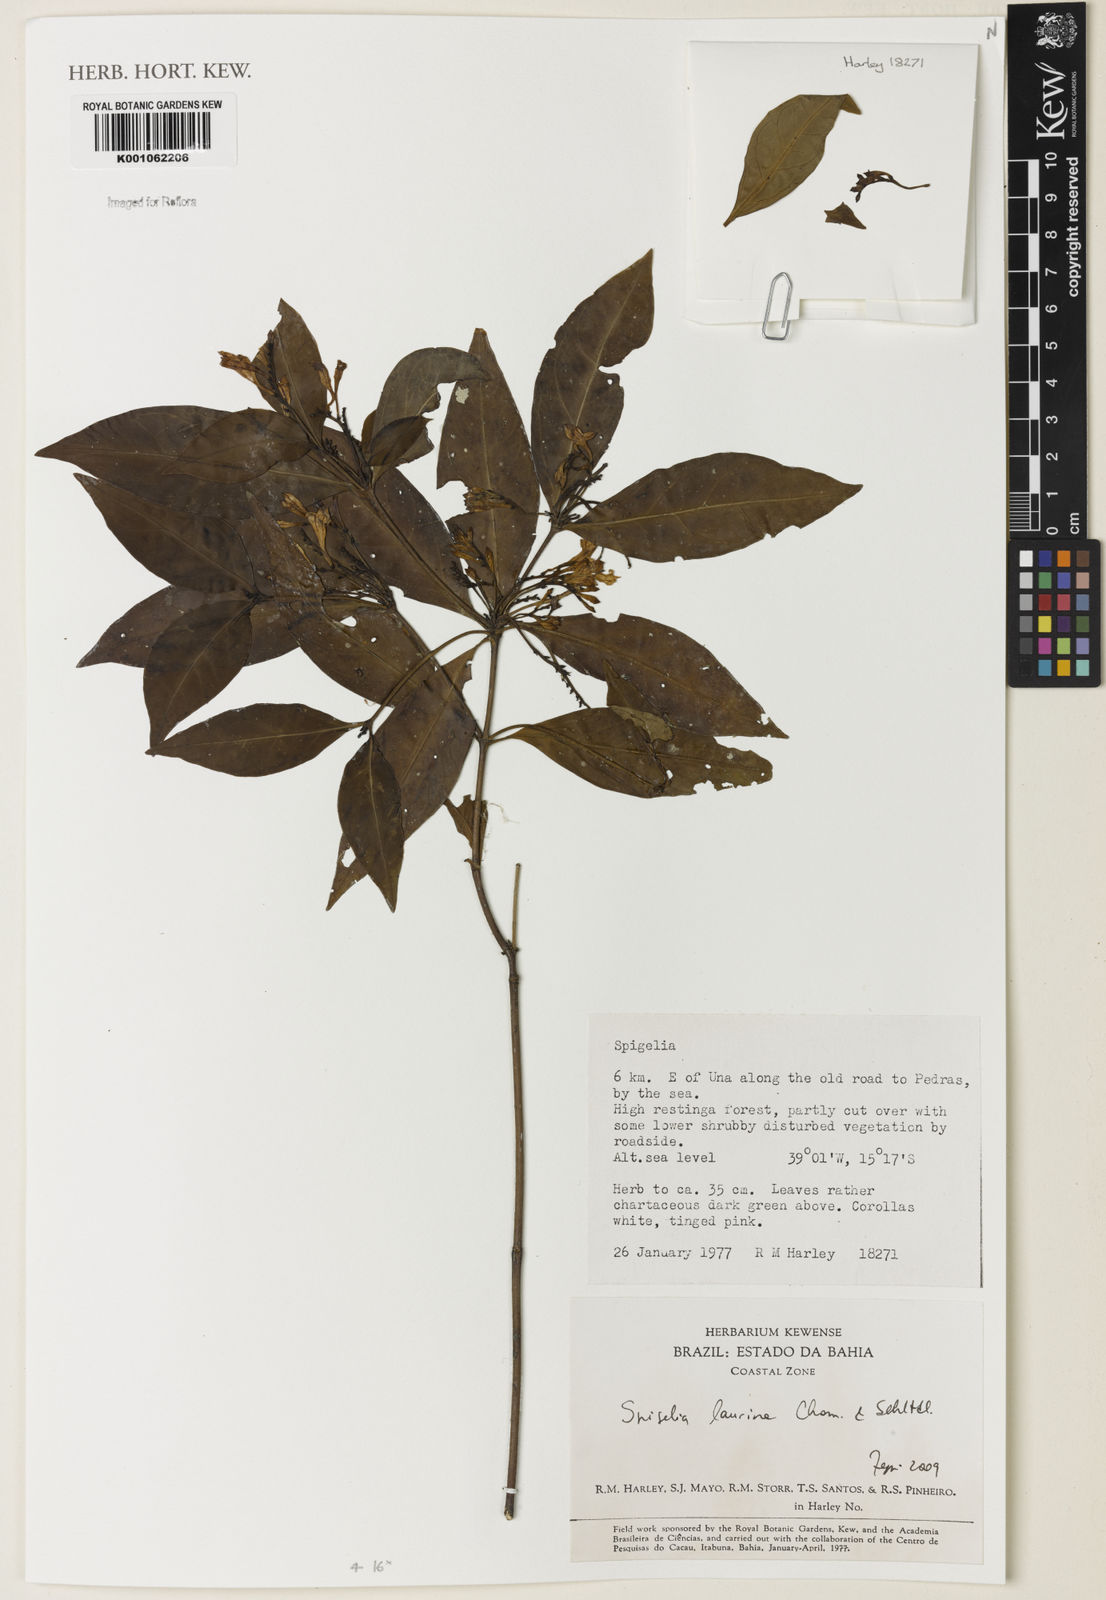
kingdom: Plantae
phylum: Tracheophyta
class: Magnoliopsida
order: Gentianales
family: Loganiaceae
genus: Spigelia
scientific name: Spigelia laurina
